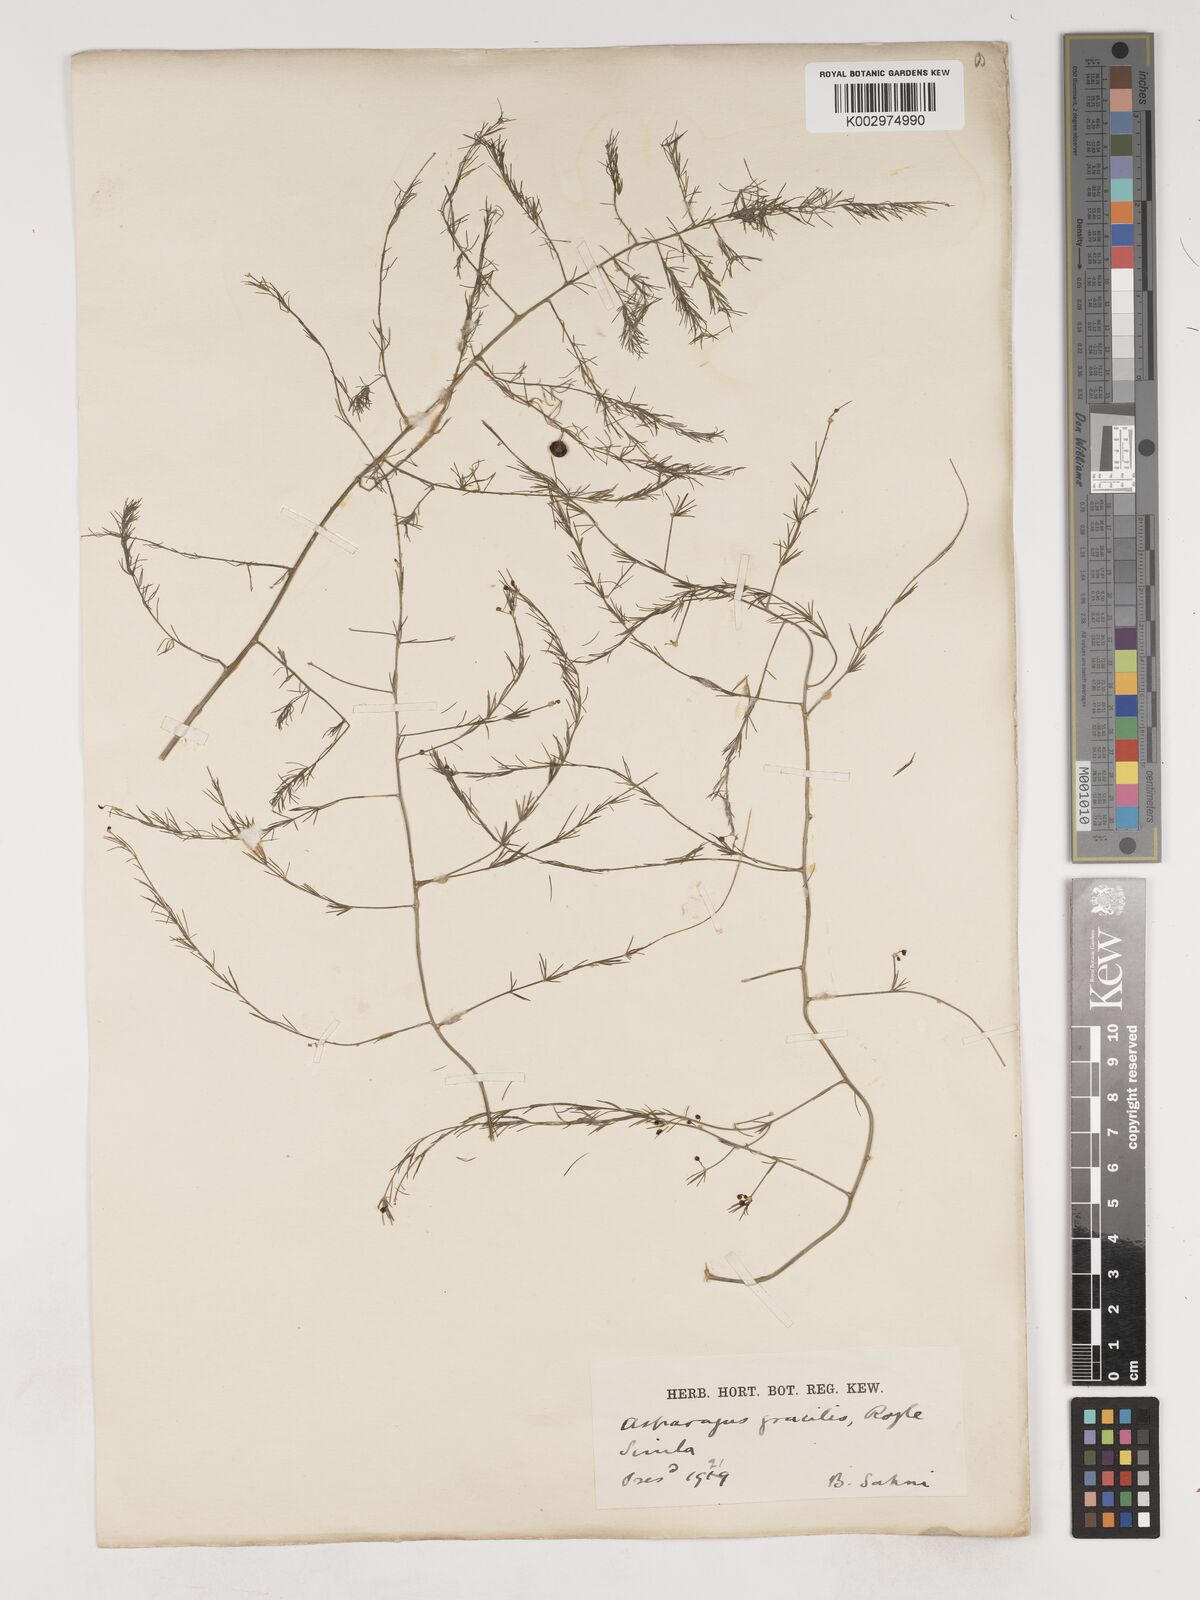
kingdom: Plantae
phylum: Tracheophyta
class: Liliopsida
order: Asparagales
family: Asparagaceae
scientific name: Asparagaceae
